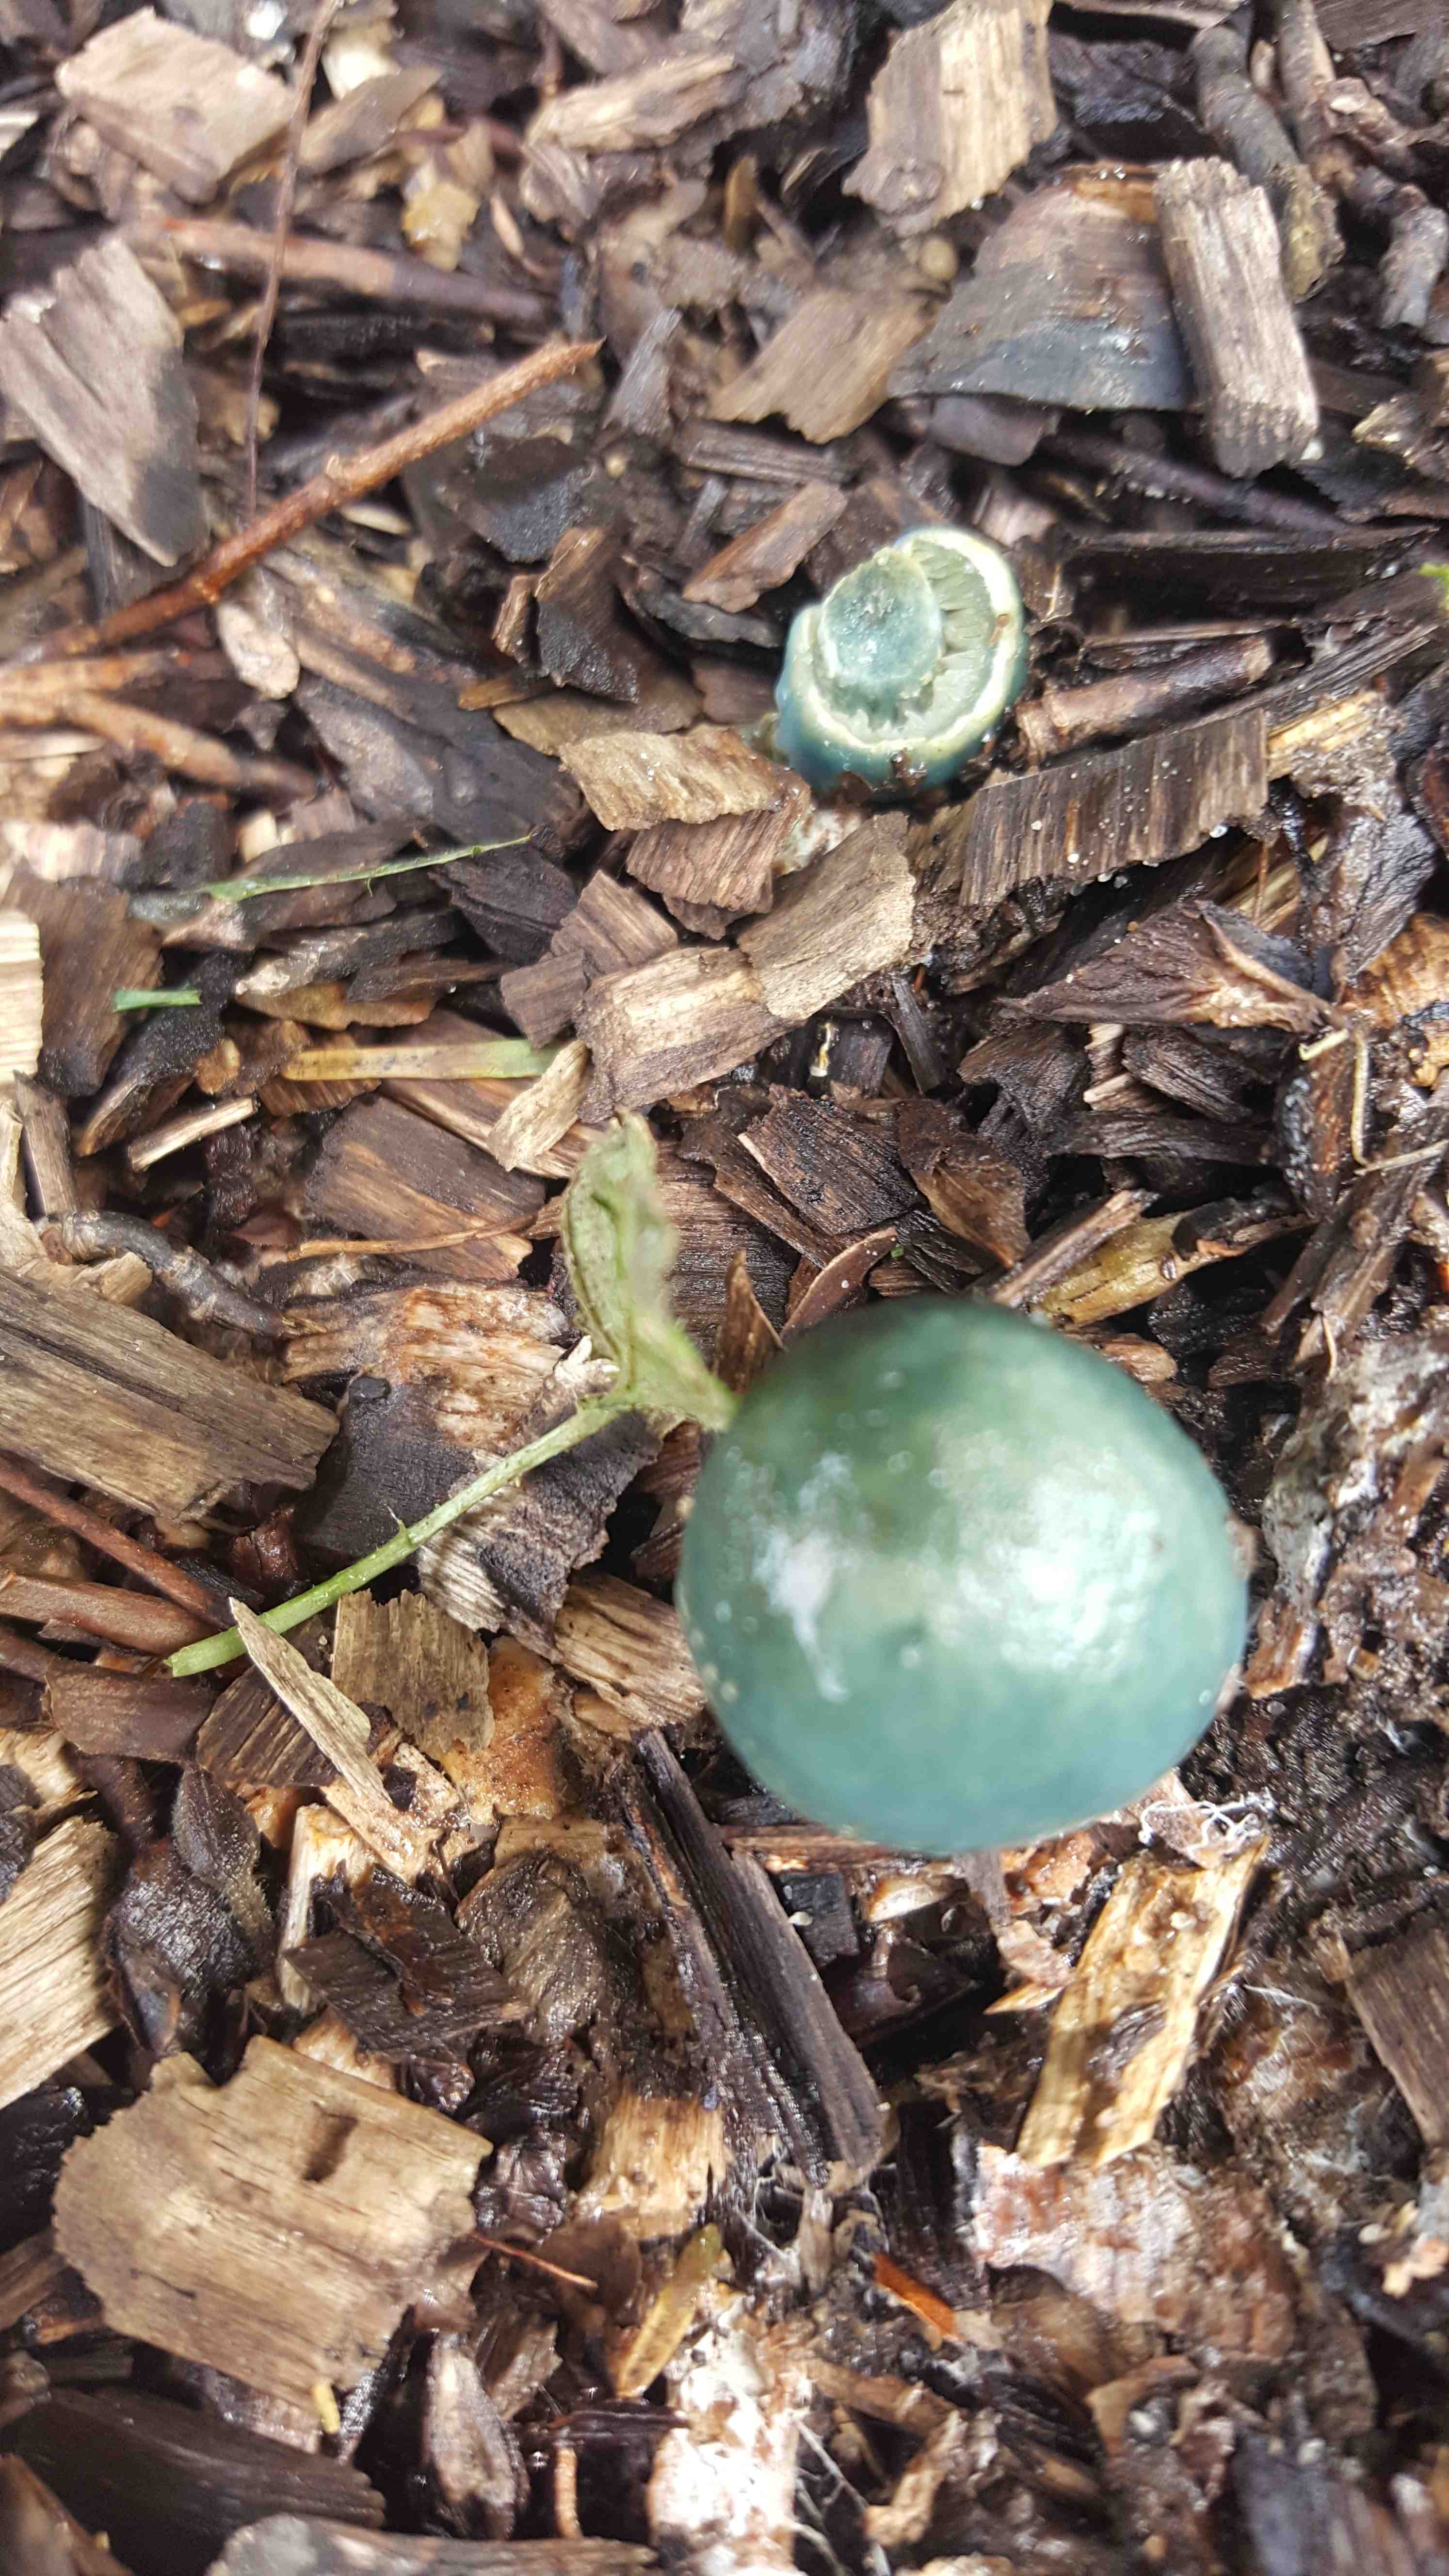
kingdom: Fungi
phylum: Basidiomycota
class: Agaricomycetes
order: Agaricales
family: Strophariaceae
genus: Stropharia
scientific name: Stropharia cyanea
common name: blågrøn bredblad
